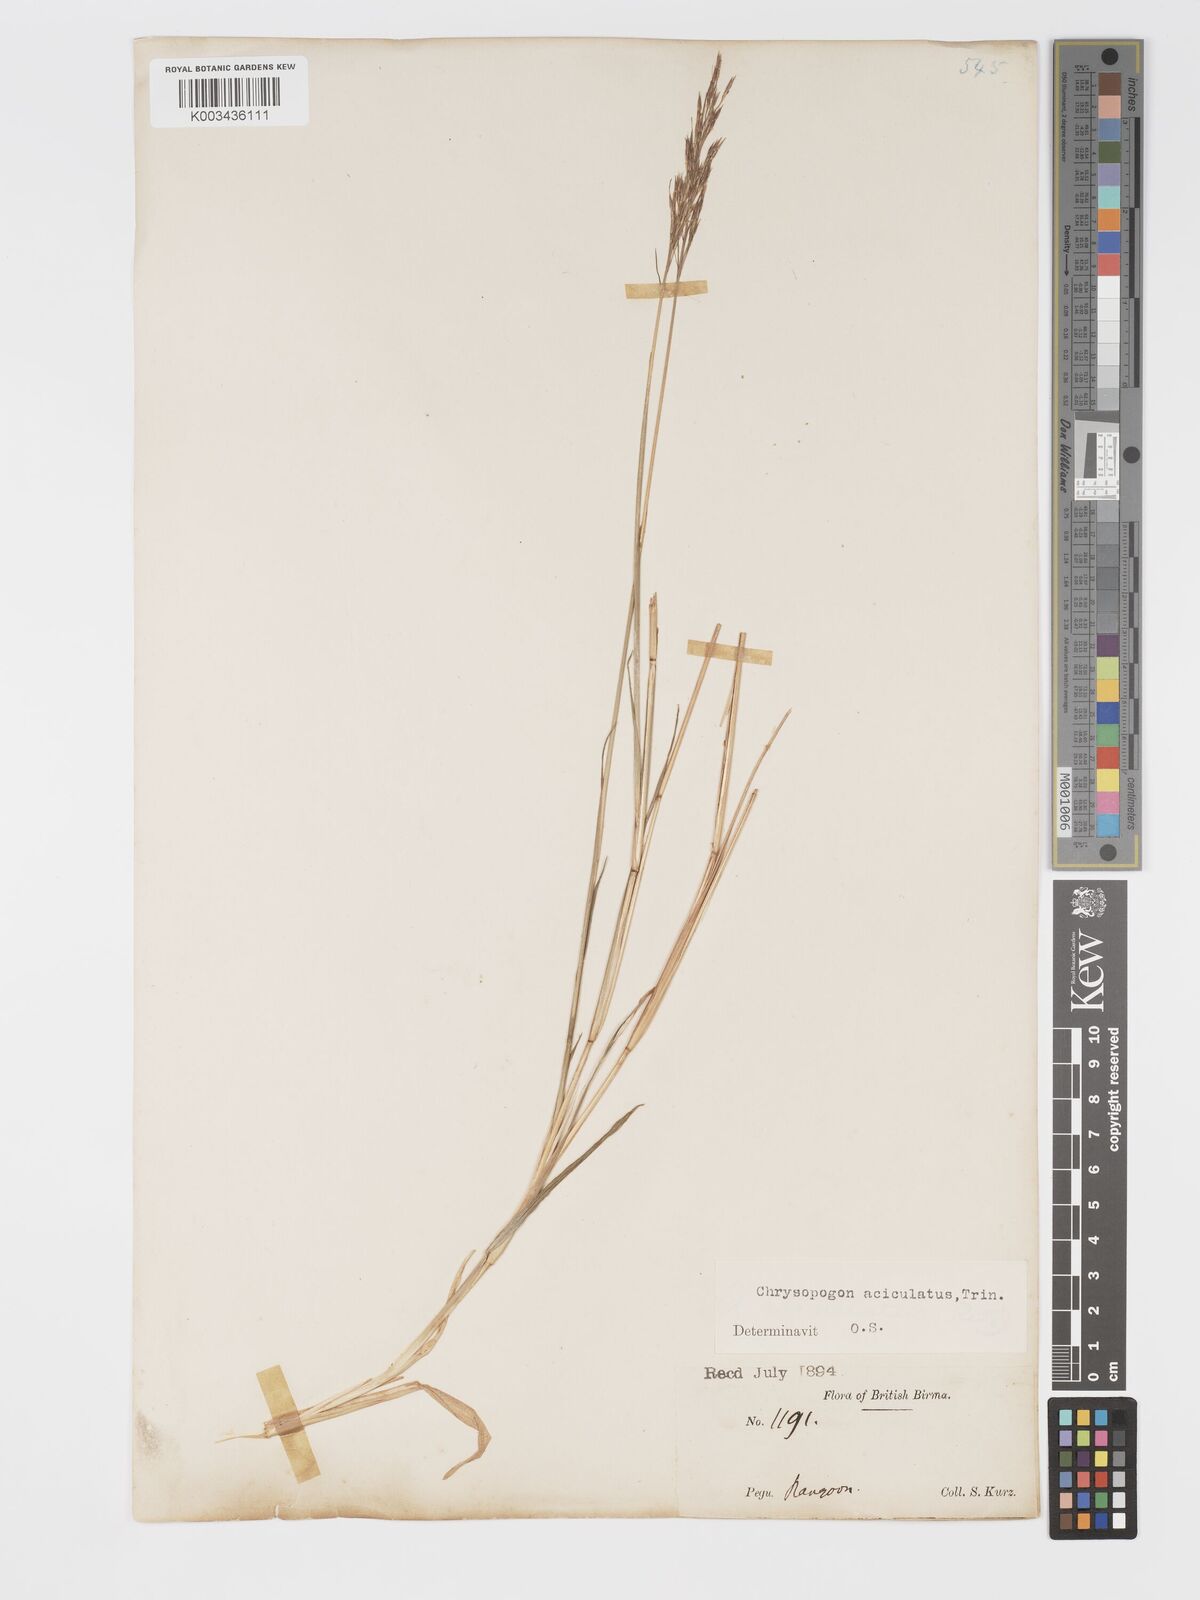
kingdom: Plantae
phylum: Tracheophyta
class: Liliopsida
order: Poales
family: Poaceae
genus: Chrysopogon
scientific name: Chrysopogon aciculatus
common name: Pilipiliula
